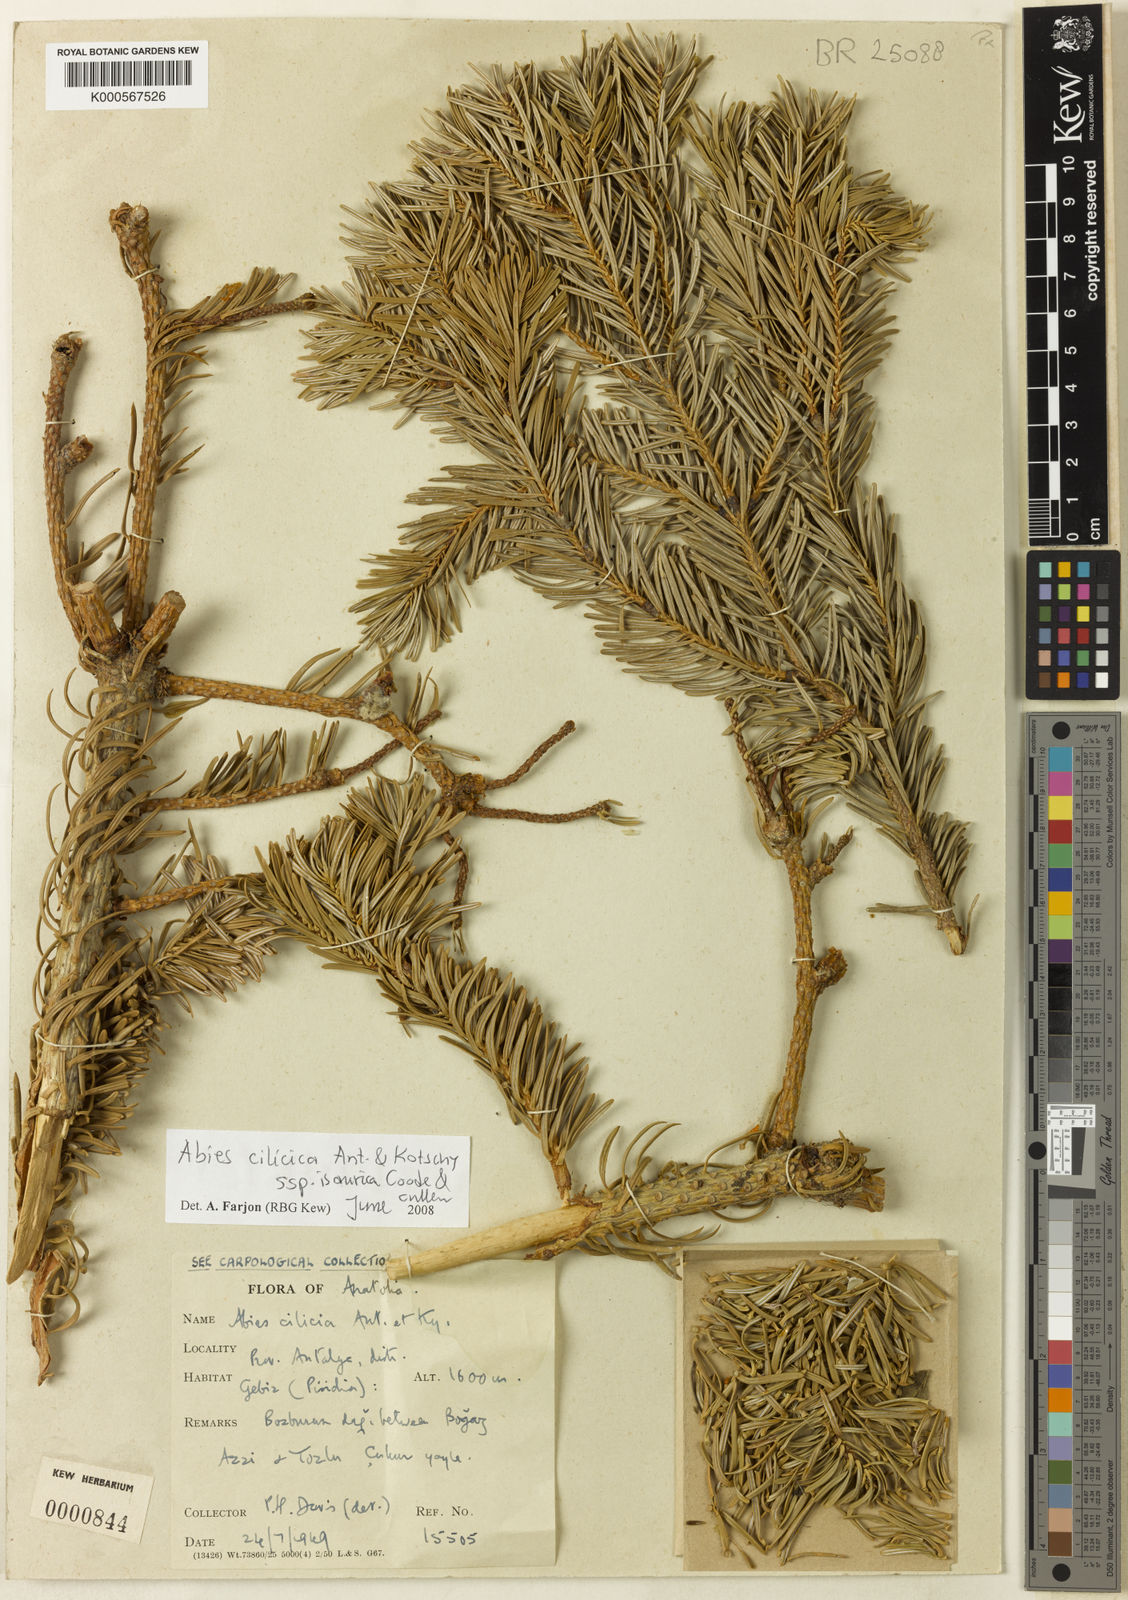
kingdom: Plantae
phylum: Tracheophyta
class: Pinopsida
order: Pinales
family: Pinaceae
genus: Abies
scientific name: Abies
